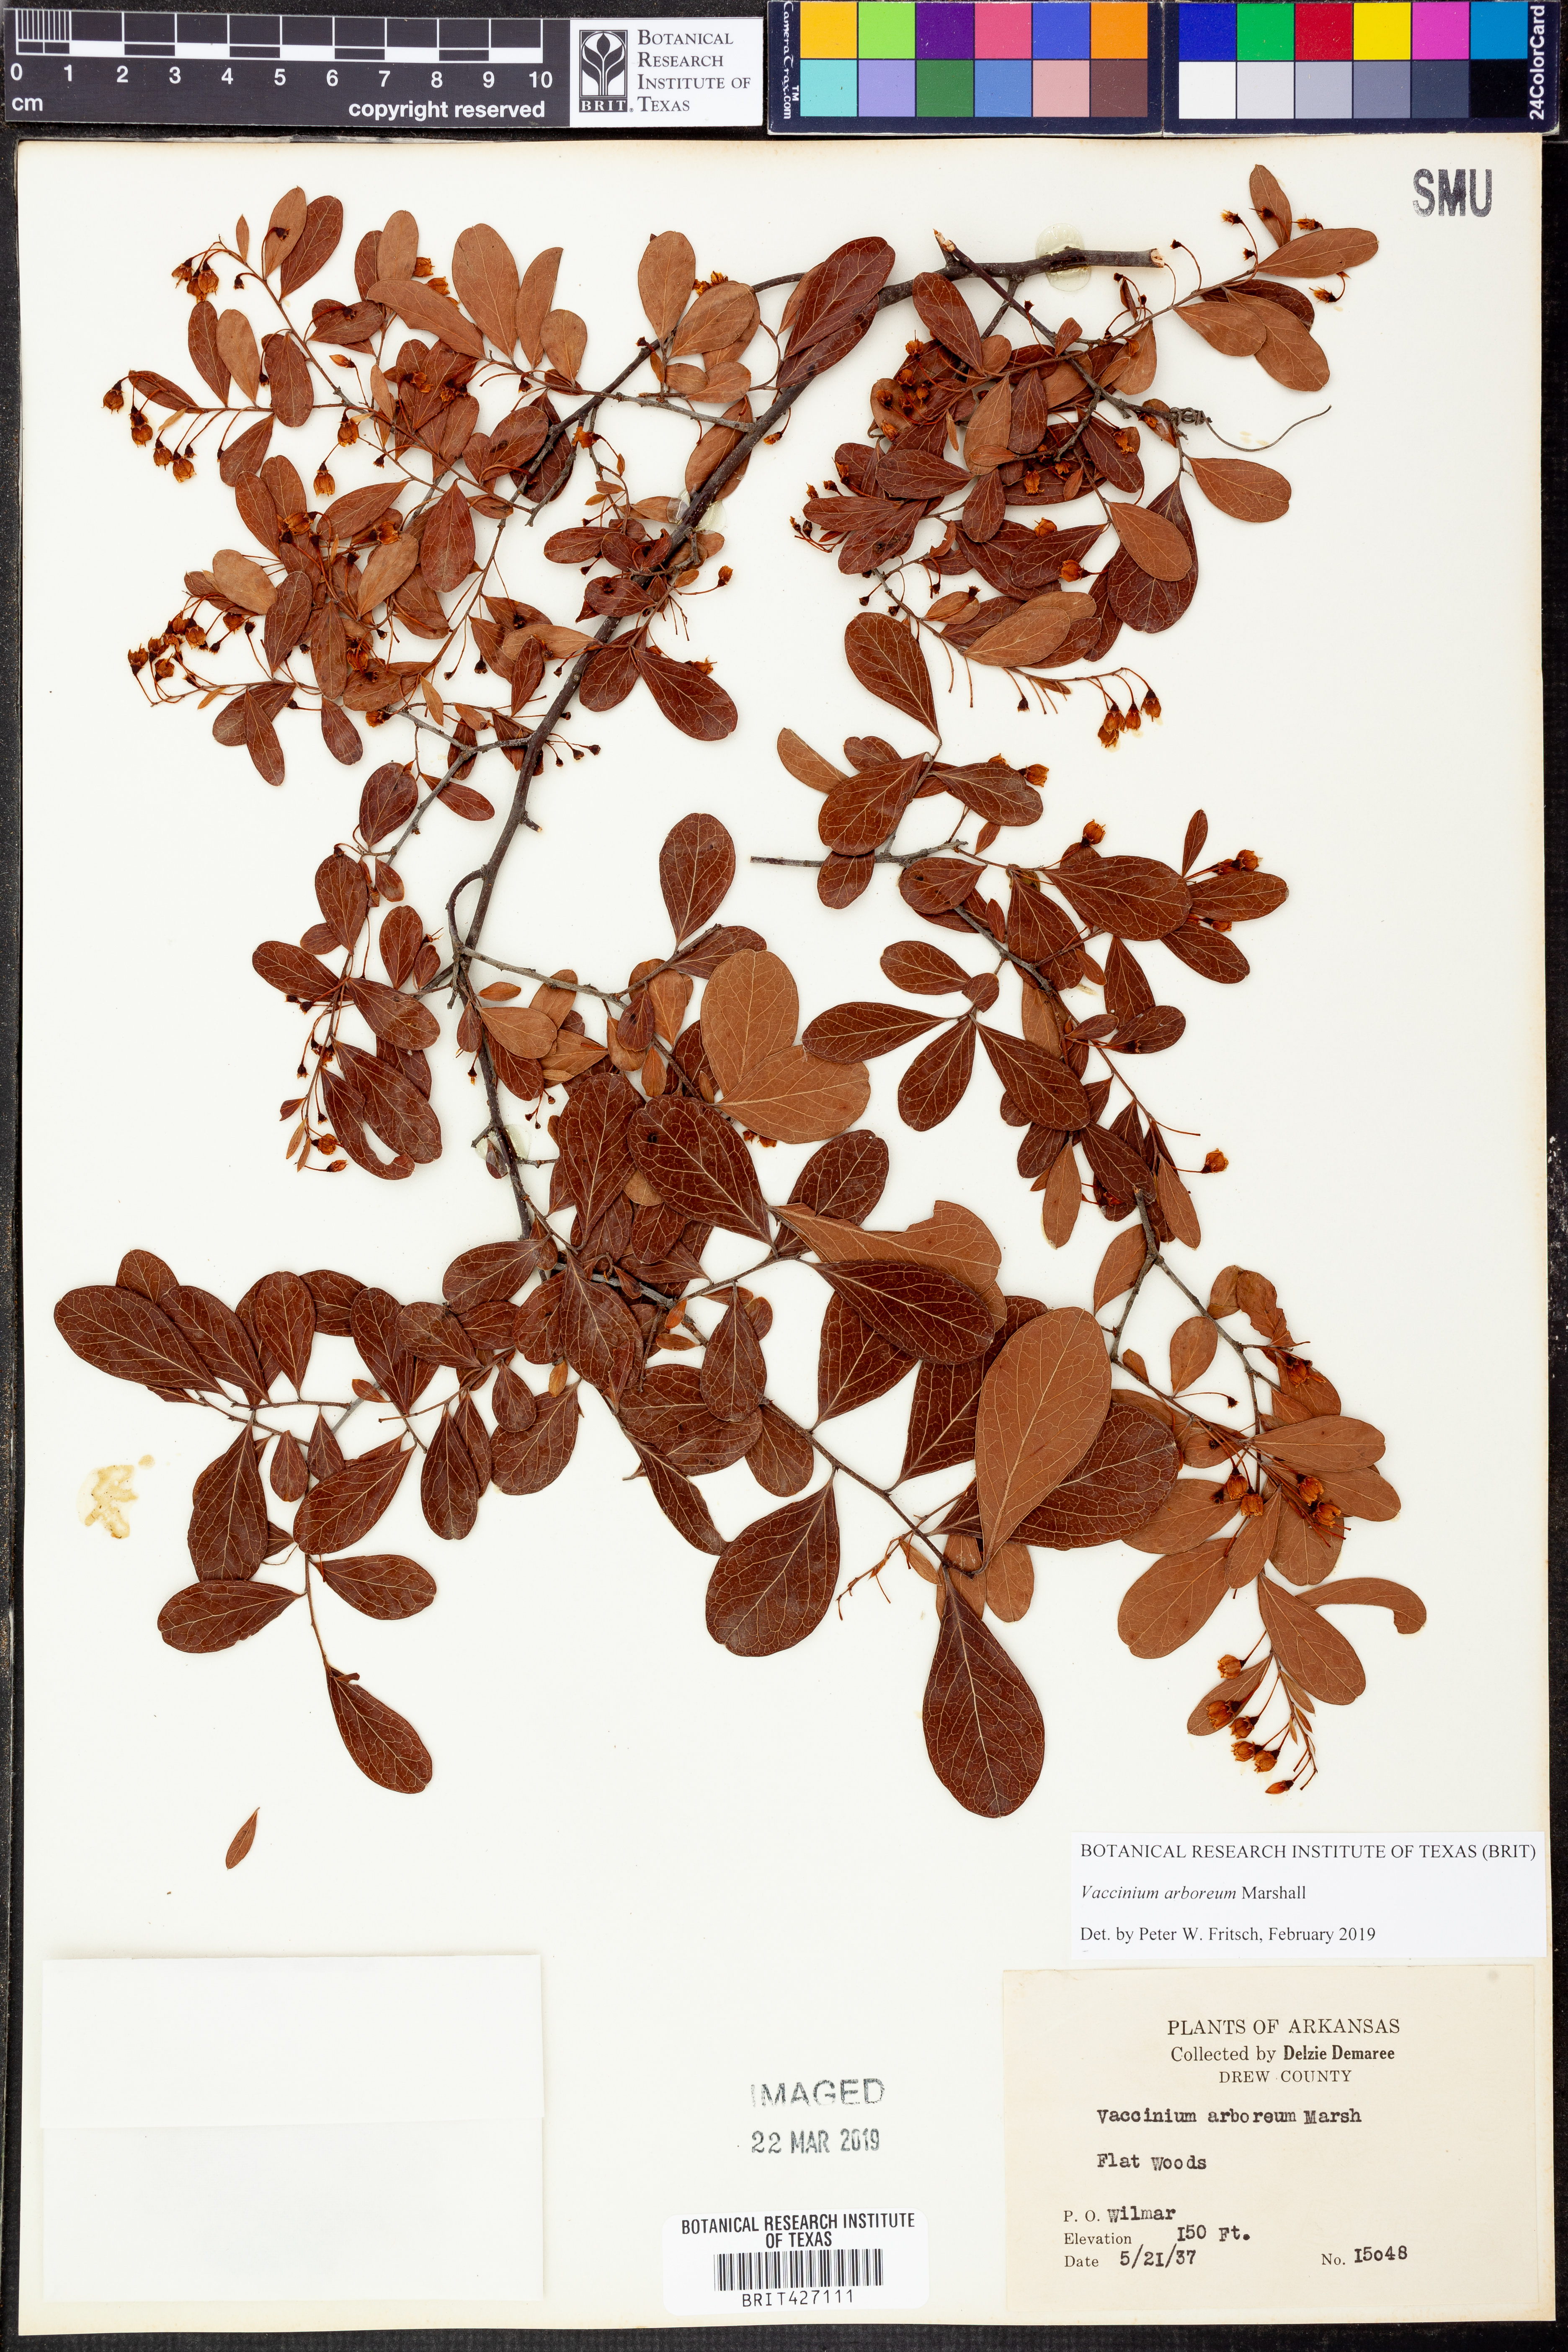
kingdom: Plantae
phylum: Tracheophyta
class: Magnoliopsida
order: Ericales
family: Ericaceae
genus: Vaccinium
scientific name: Vaccinium arboreum
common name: Farkleberry
